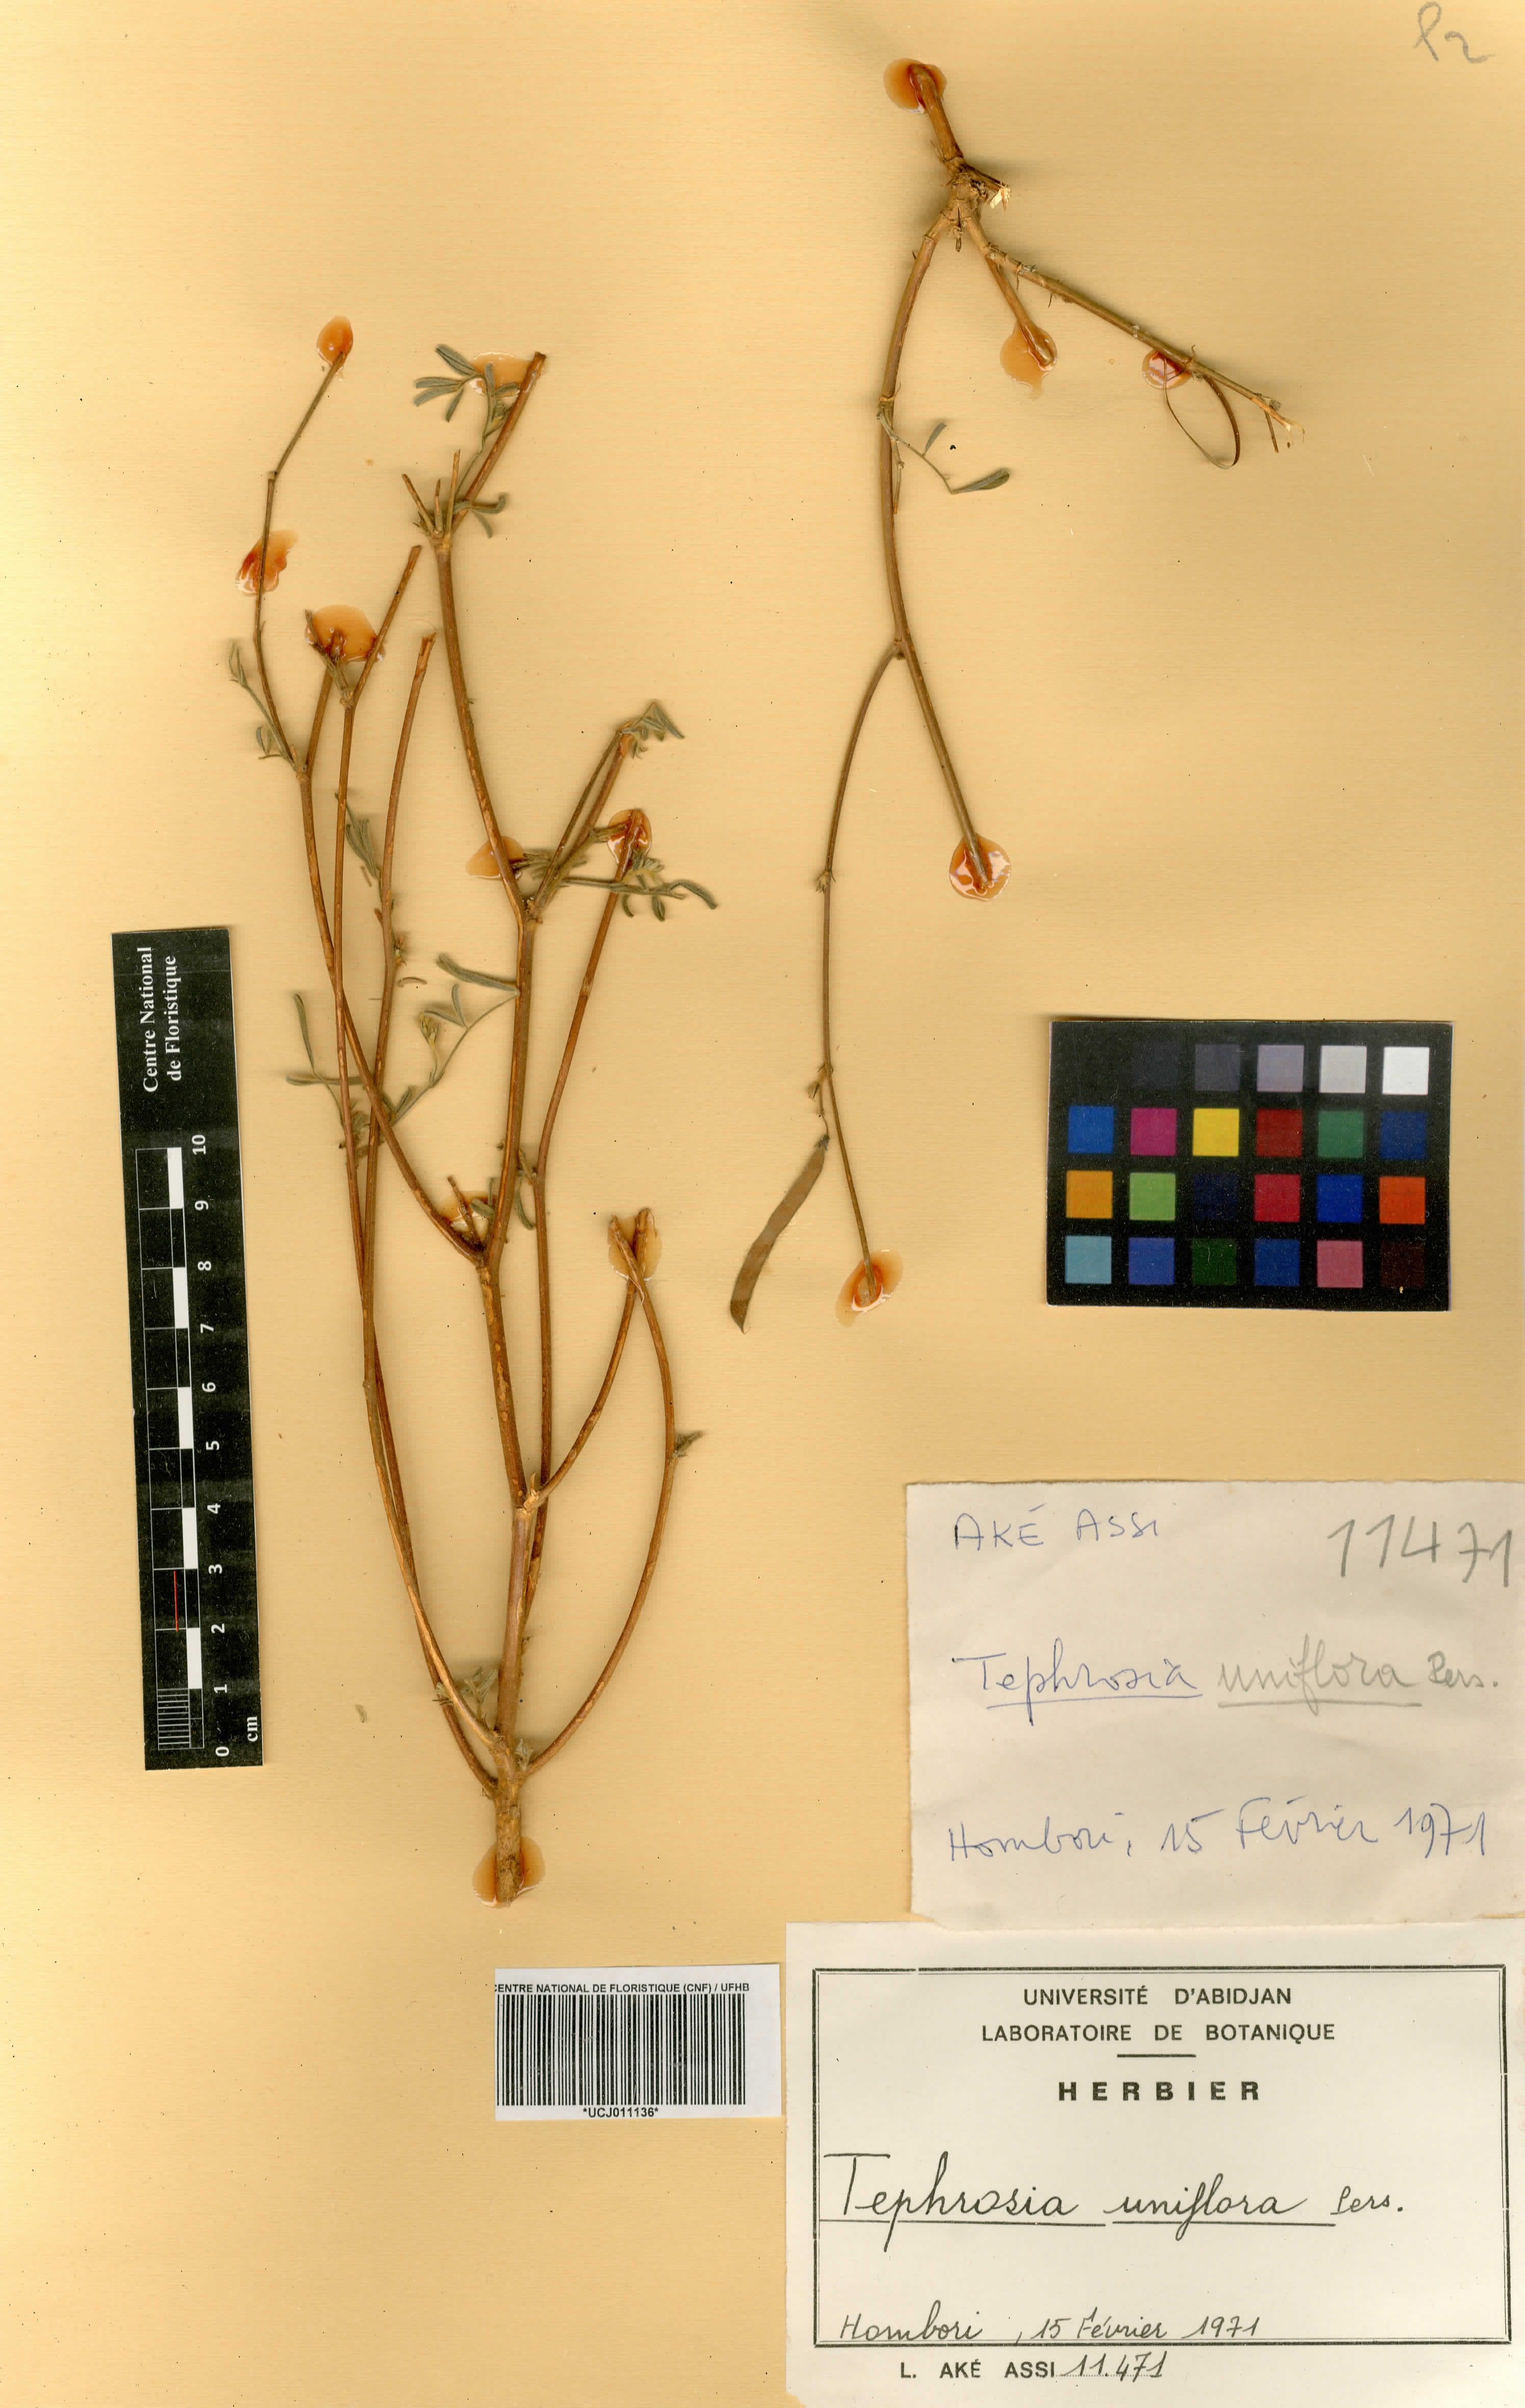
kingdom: Plantae
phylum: Tracheophyta
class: Magnoliopsida
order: Fabales
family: Fabaceae
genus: Tephrosia
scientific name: Tephrosia uniflora
